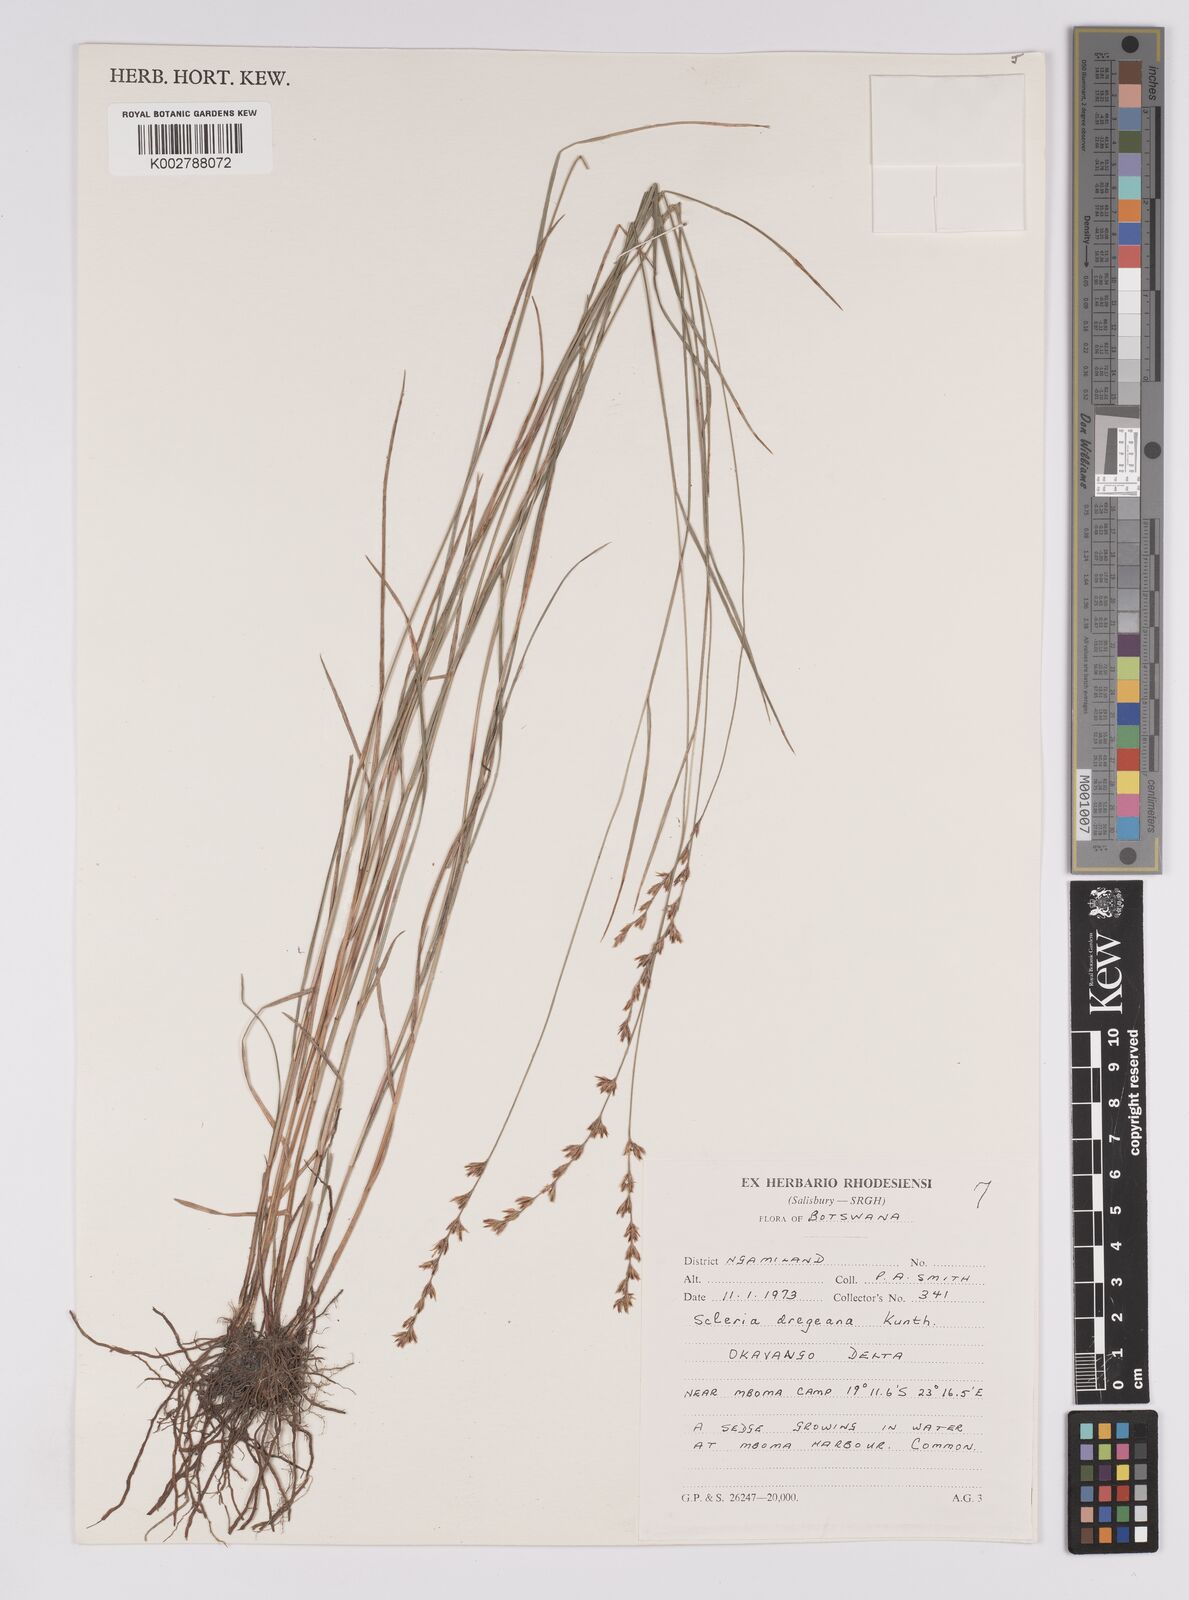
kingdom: Plantae
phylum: Tracheophyta
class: Liliopsida
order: Poales
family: Cyperaceae
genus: Scleria
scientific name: Scleria dregeana
